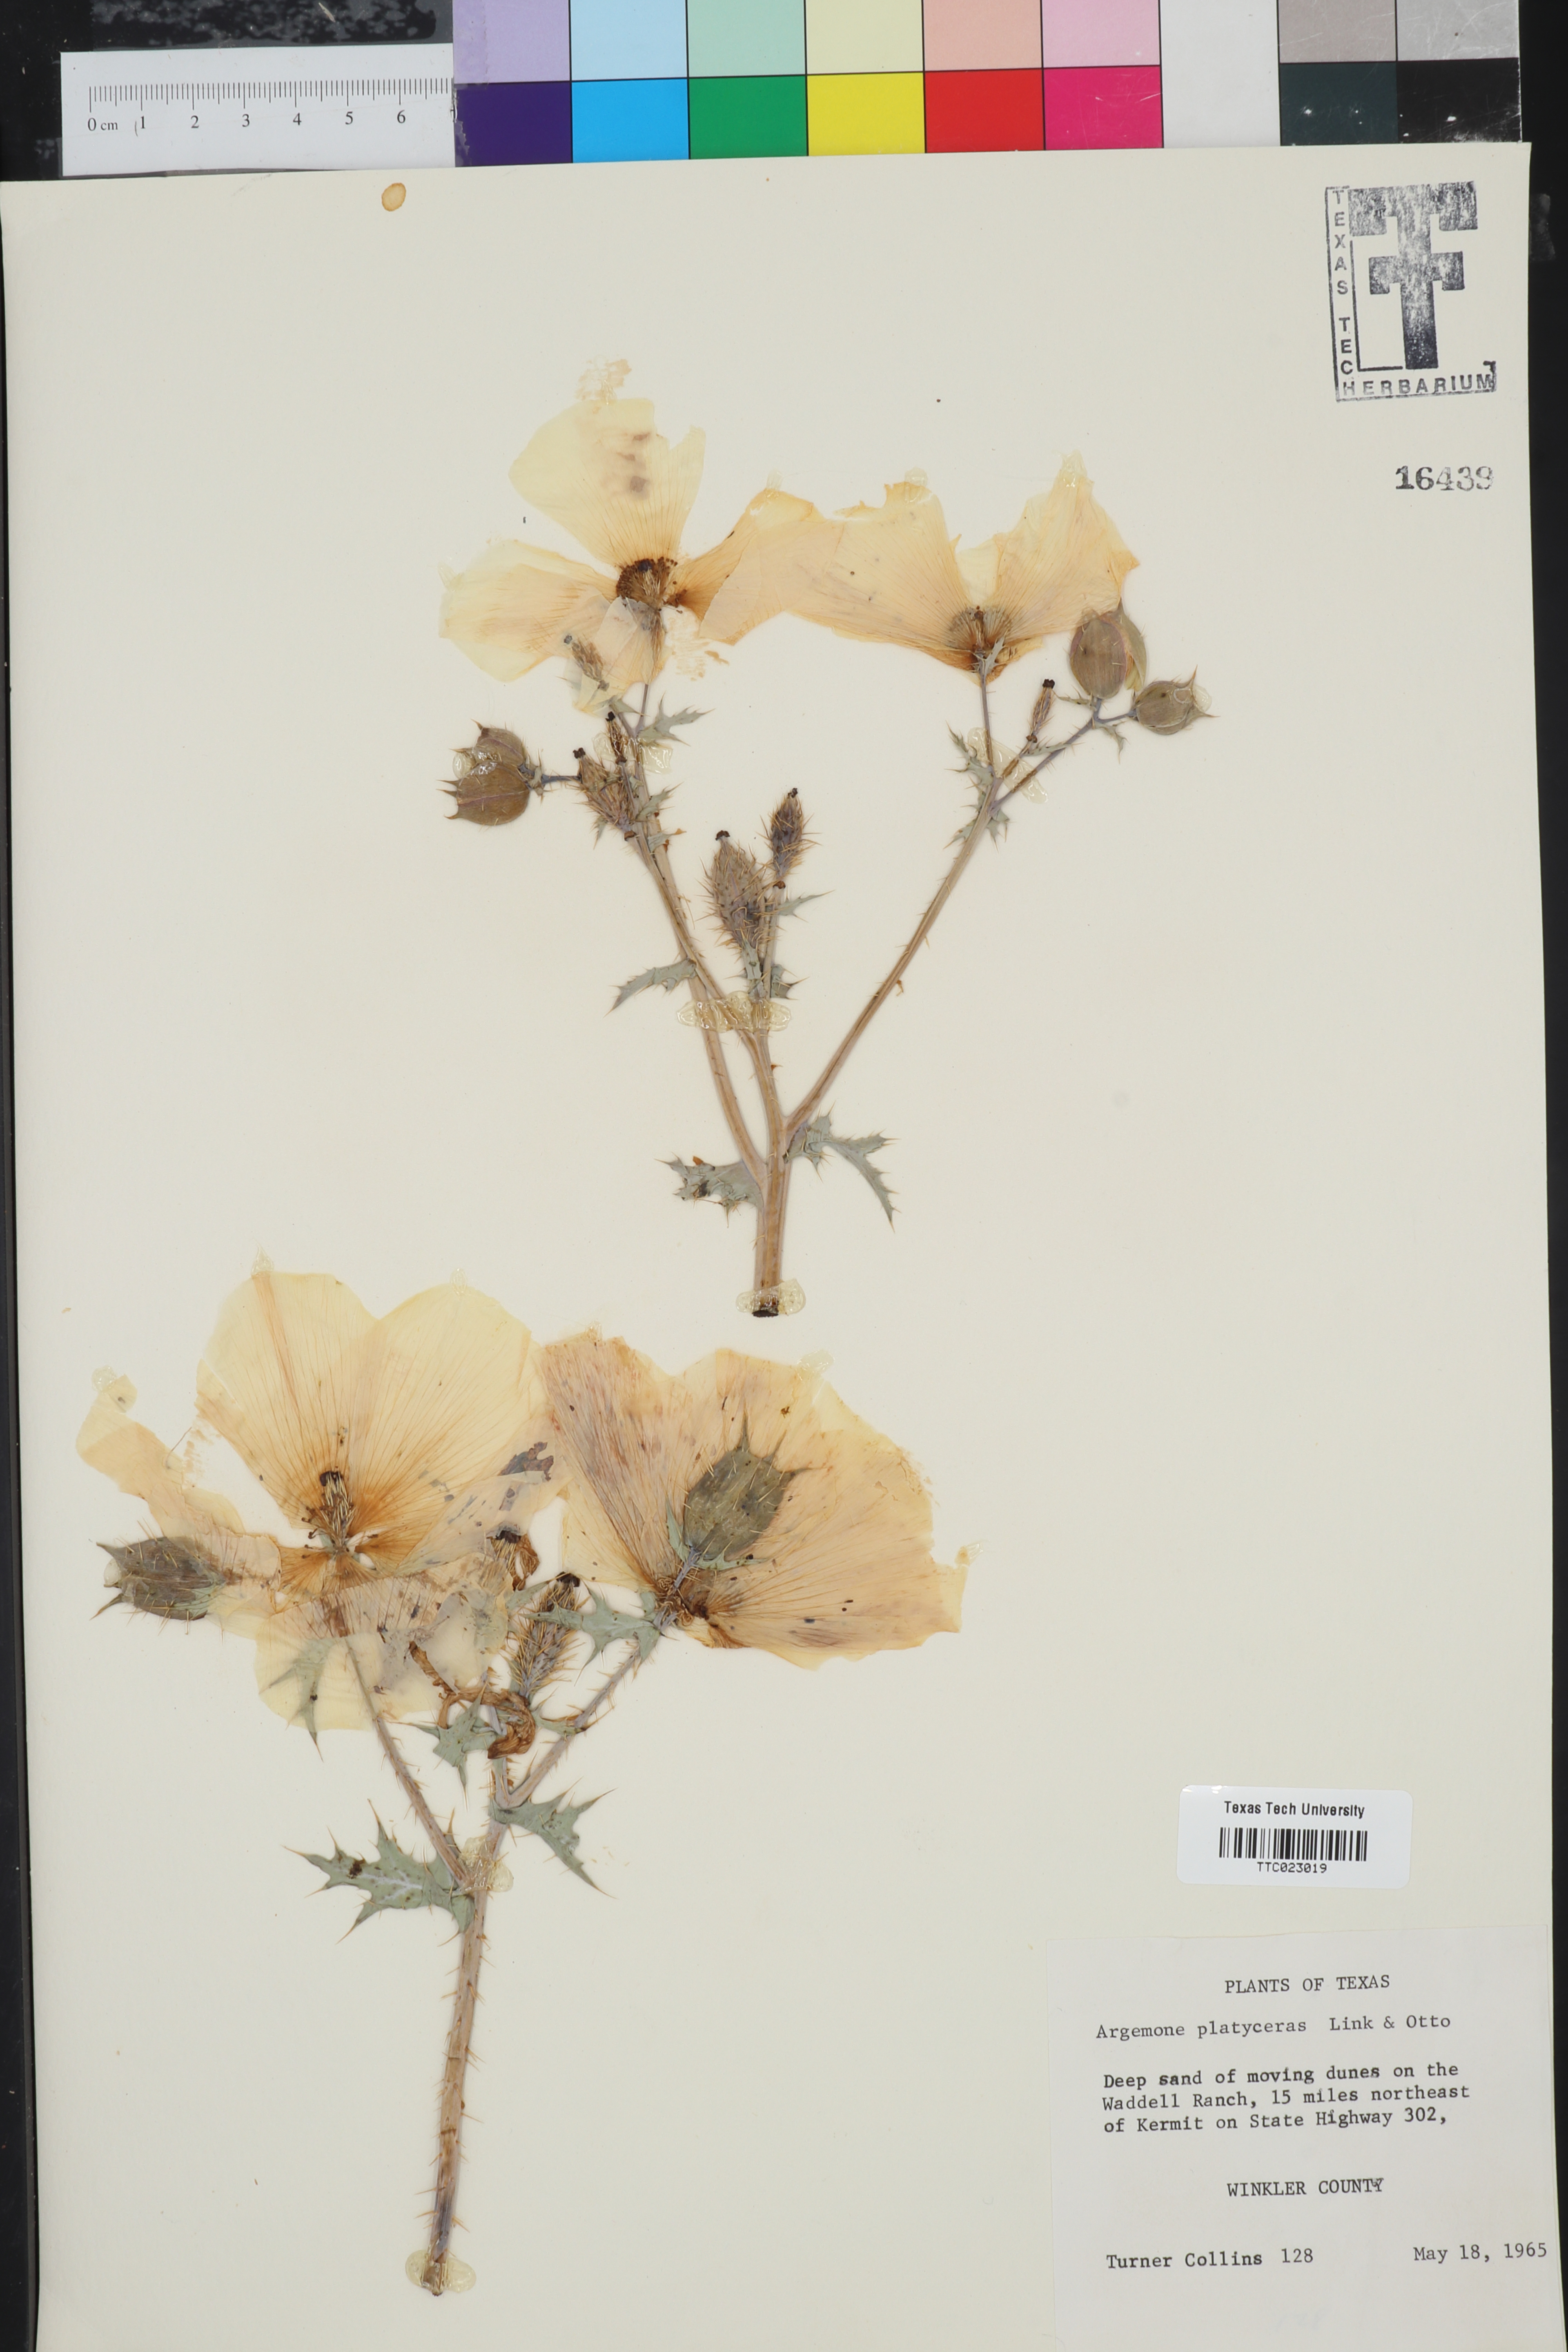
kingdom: Plantae
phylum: Tracheophyta
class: Magnoliopsida
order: Ranunculales
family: Papaveraceae
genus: Argemone
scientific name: Argemone platyceras
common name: Crested-poppy
